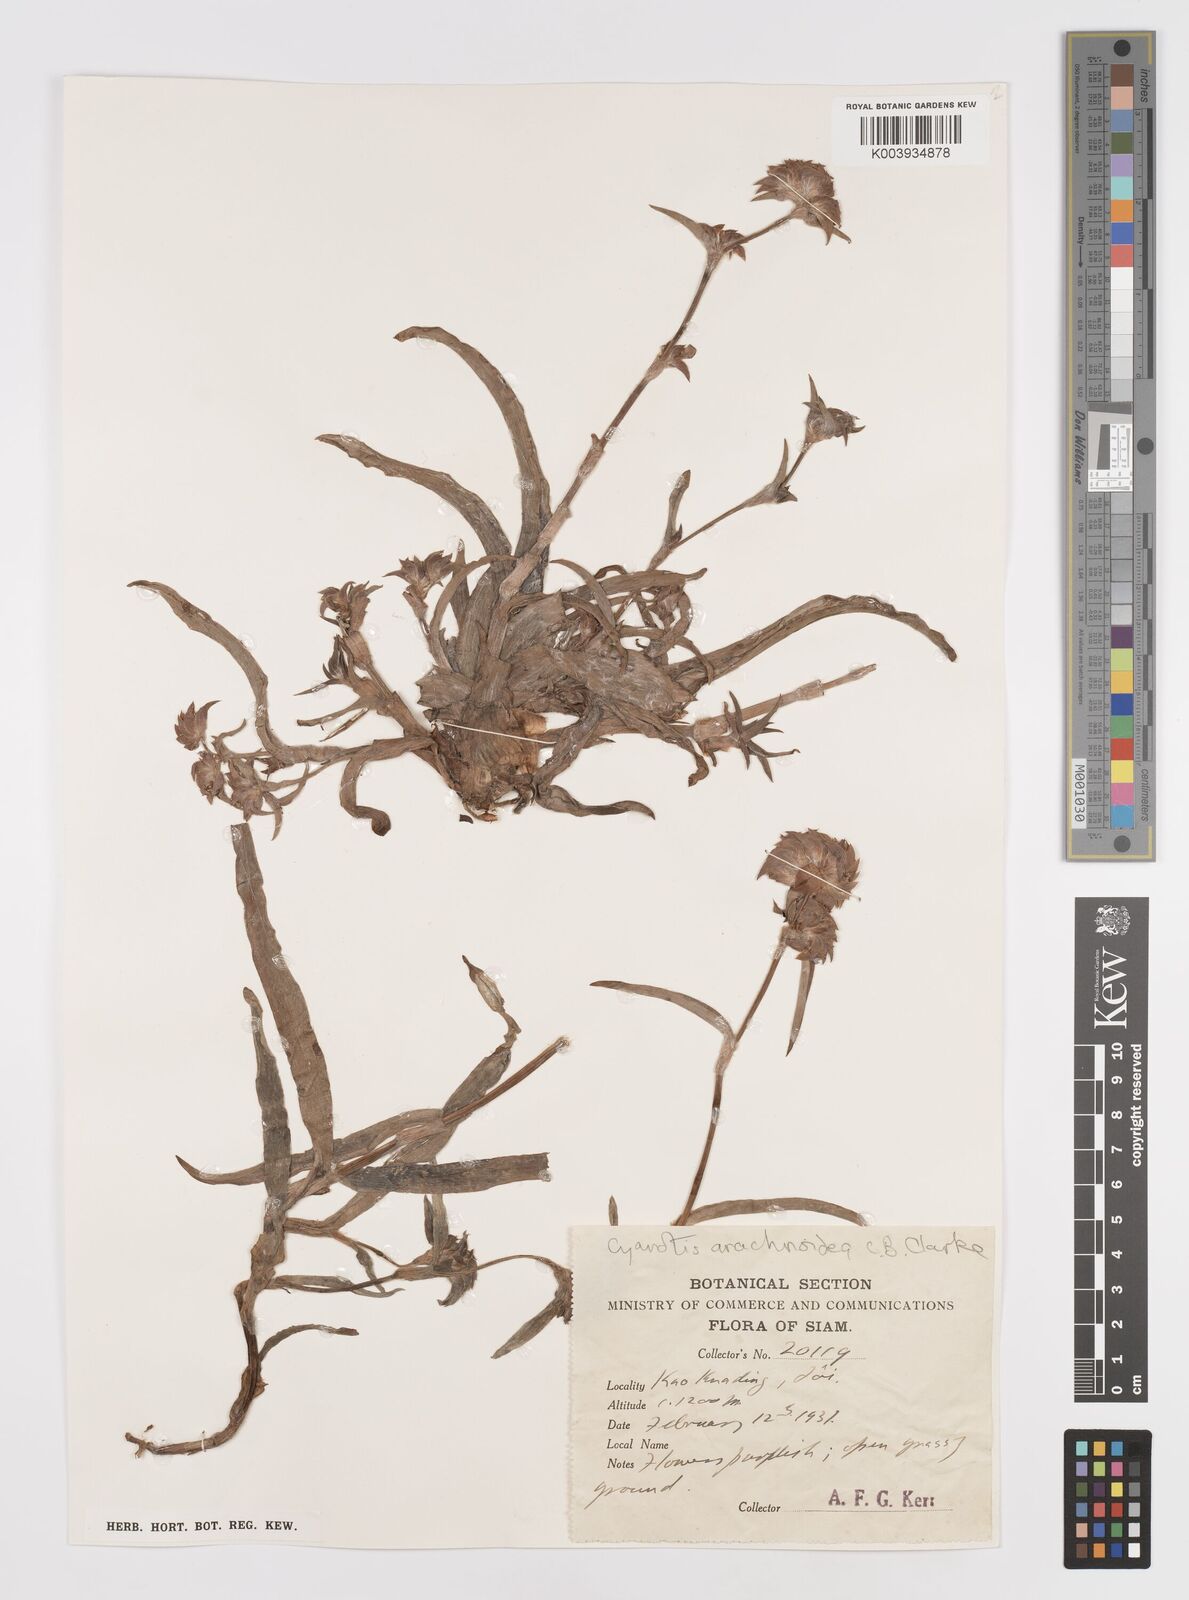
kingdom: Plantae
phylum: Tracheophyta
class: Liliopsida
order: Commelinales
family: Commelinaceae
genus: Cyanotis
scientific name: Cyanotis arachnoidea
